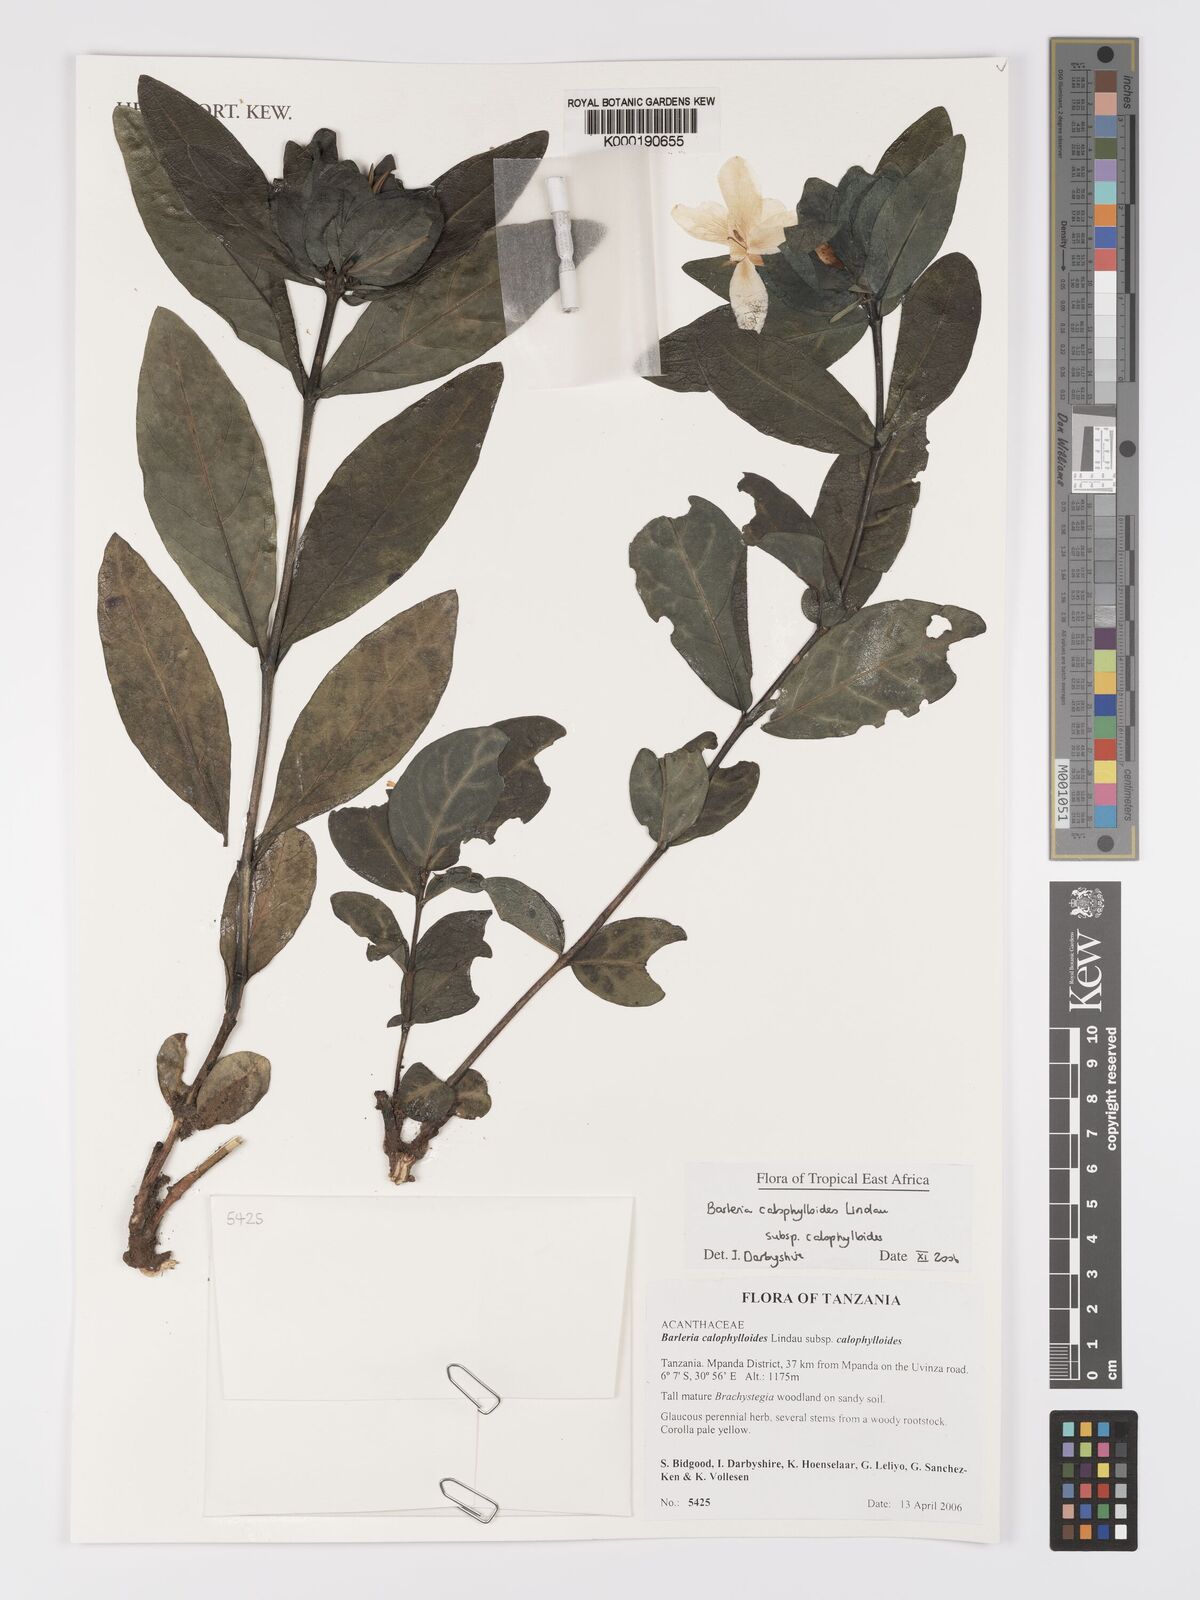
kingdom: Plantae
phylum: Tracheophyta
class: Magnoliopsida
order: Lamiales
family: Acanthaceae
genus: Barleria
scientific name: Barleria calophylloides
